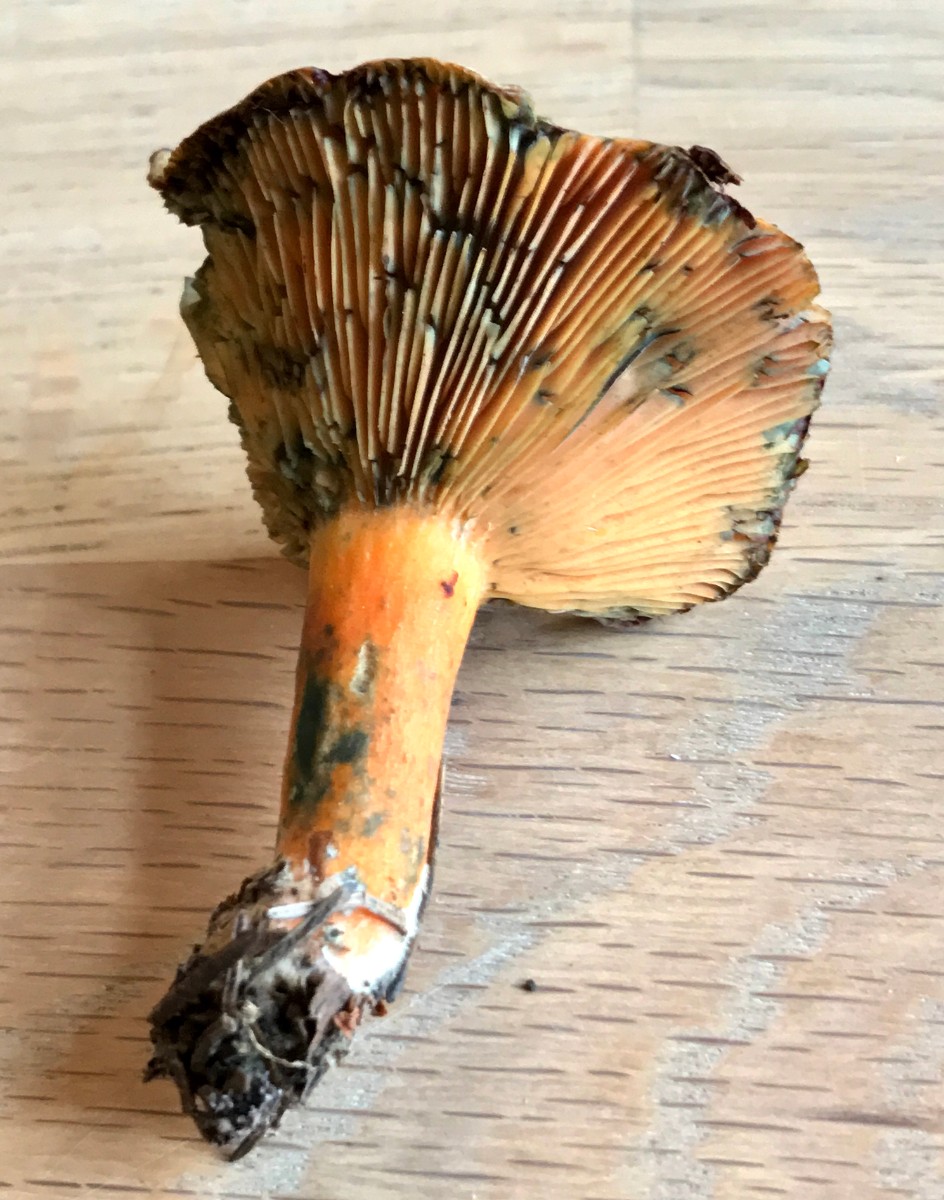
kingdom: Fungi
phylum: Basidiomycota
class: Agaricomycetes
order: Russulales
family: Russulaceae
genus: Lactarius
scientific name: Lactarius deterrimus
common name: gran-mælkehat
